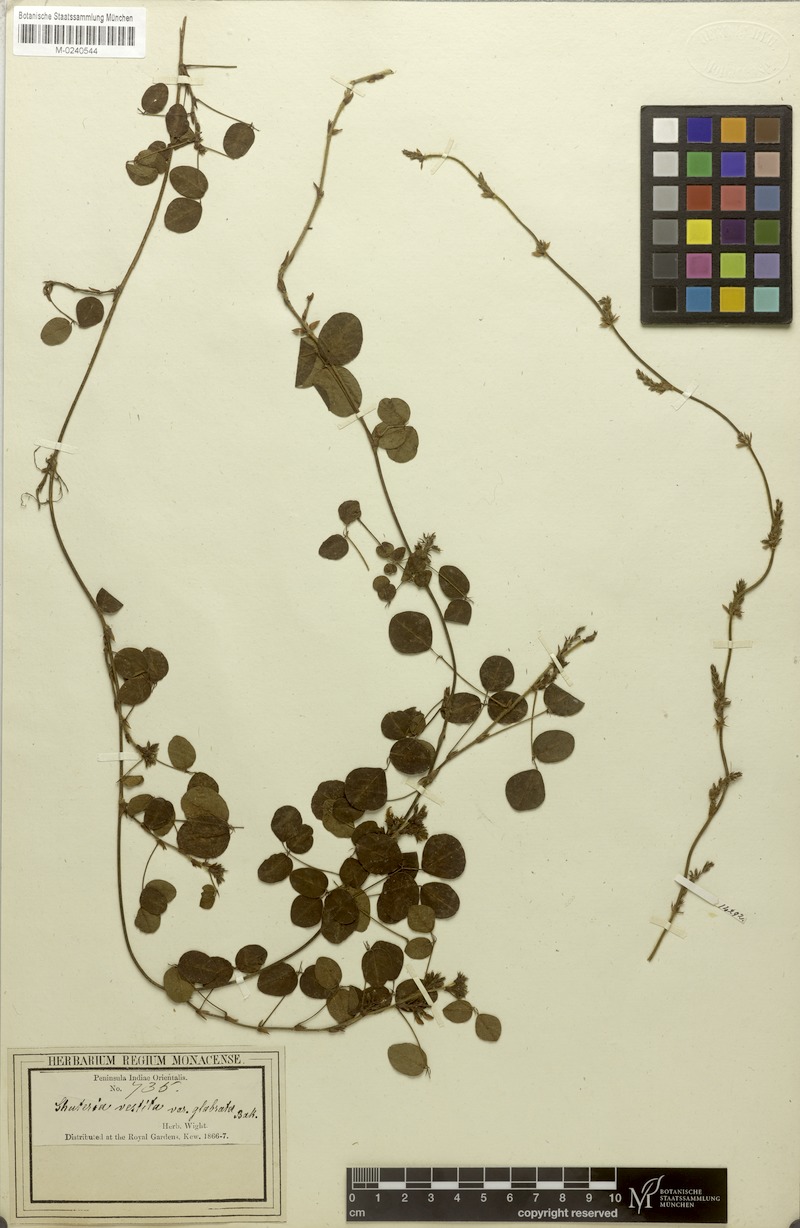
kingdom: Plantae
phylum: Tracheophyta
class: Magnoliopsida
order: Fabales
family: Fabaceae
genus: Shuteria
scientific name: Shuteria vestita
